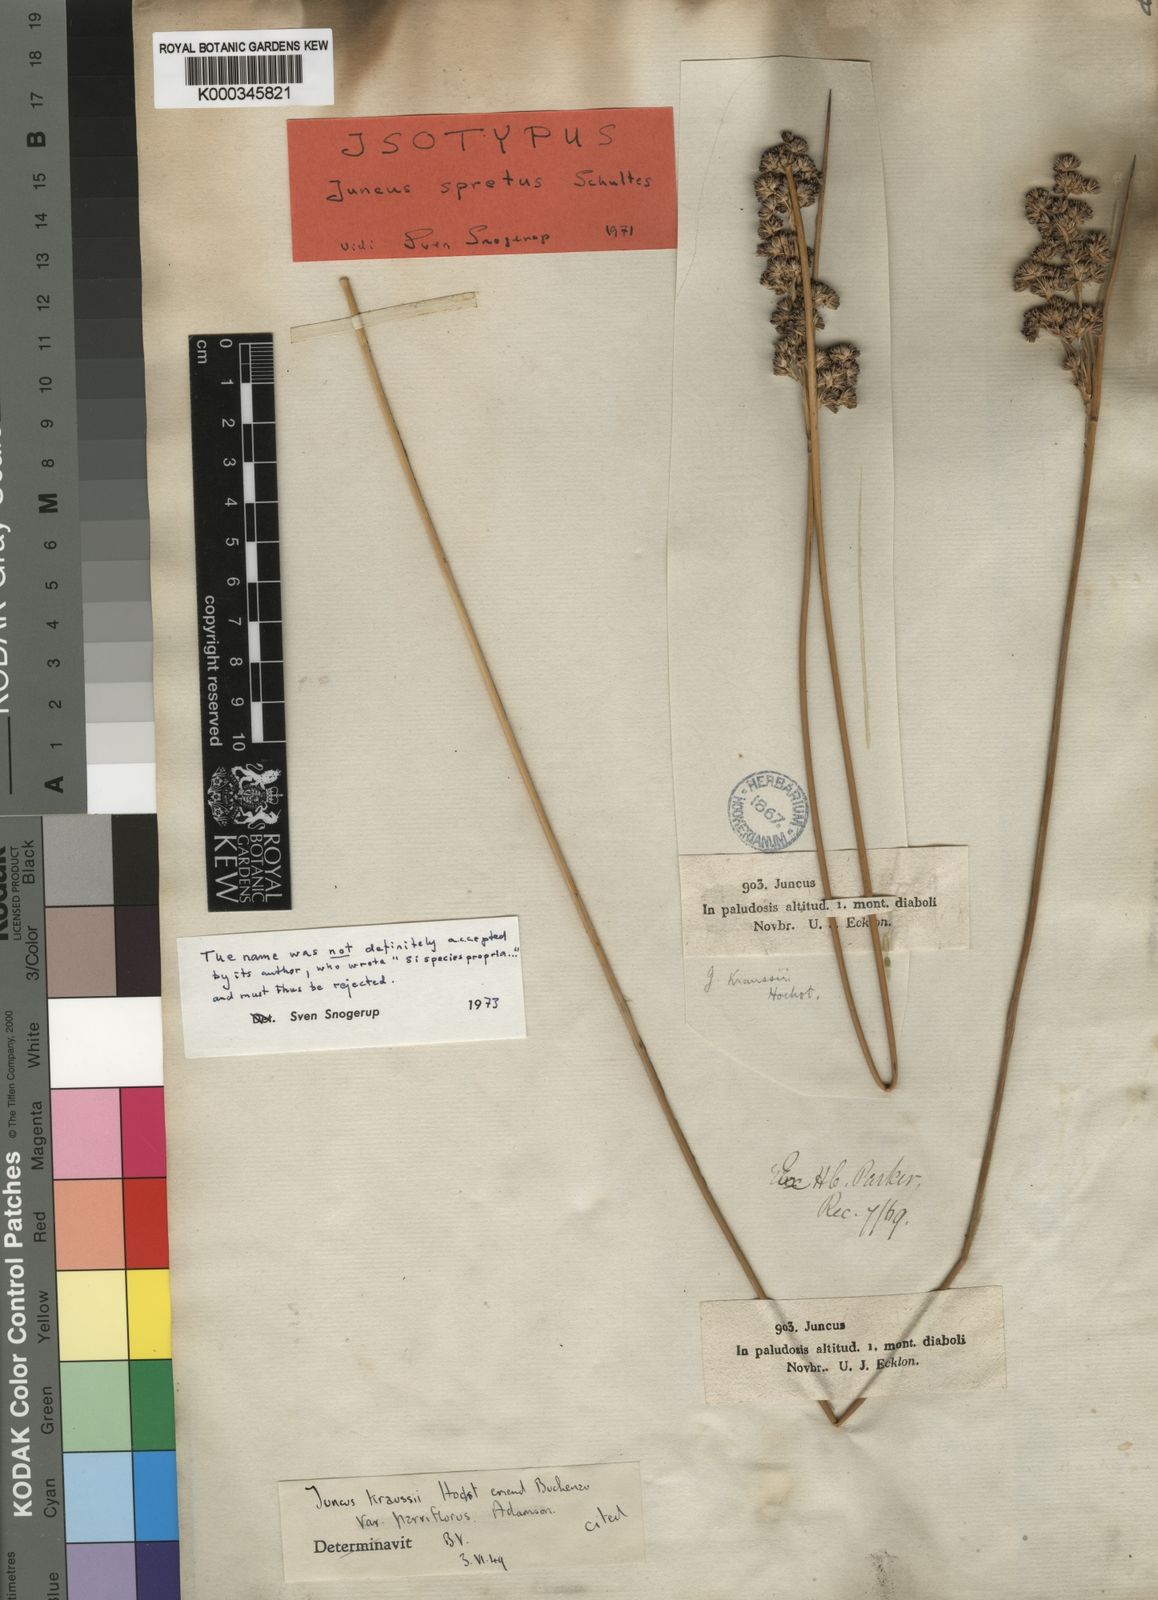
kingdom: Plantae
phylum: Tracheophyta
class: Liliopsida
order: Poales
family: Juncaceae
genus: Juncus
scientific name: Juncus kraussii
